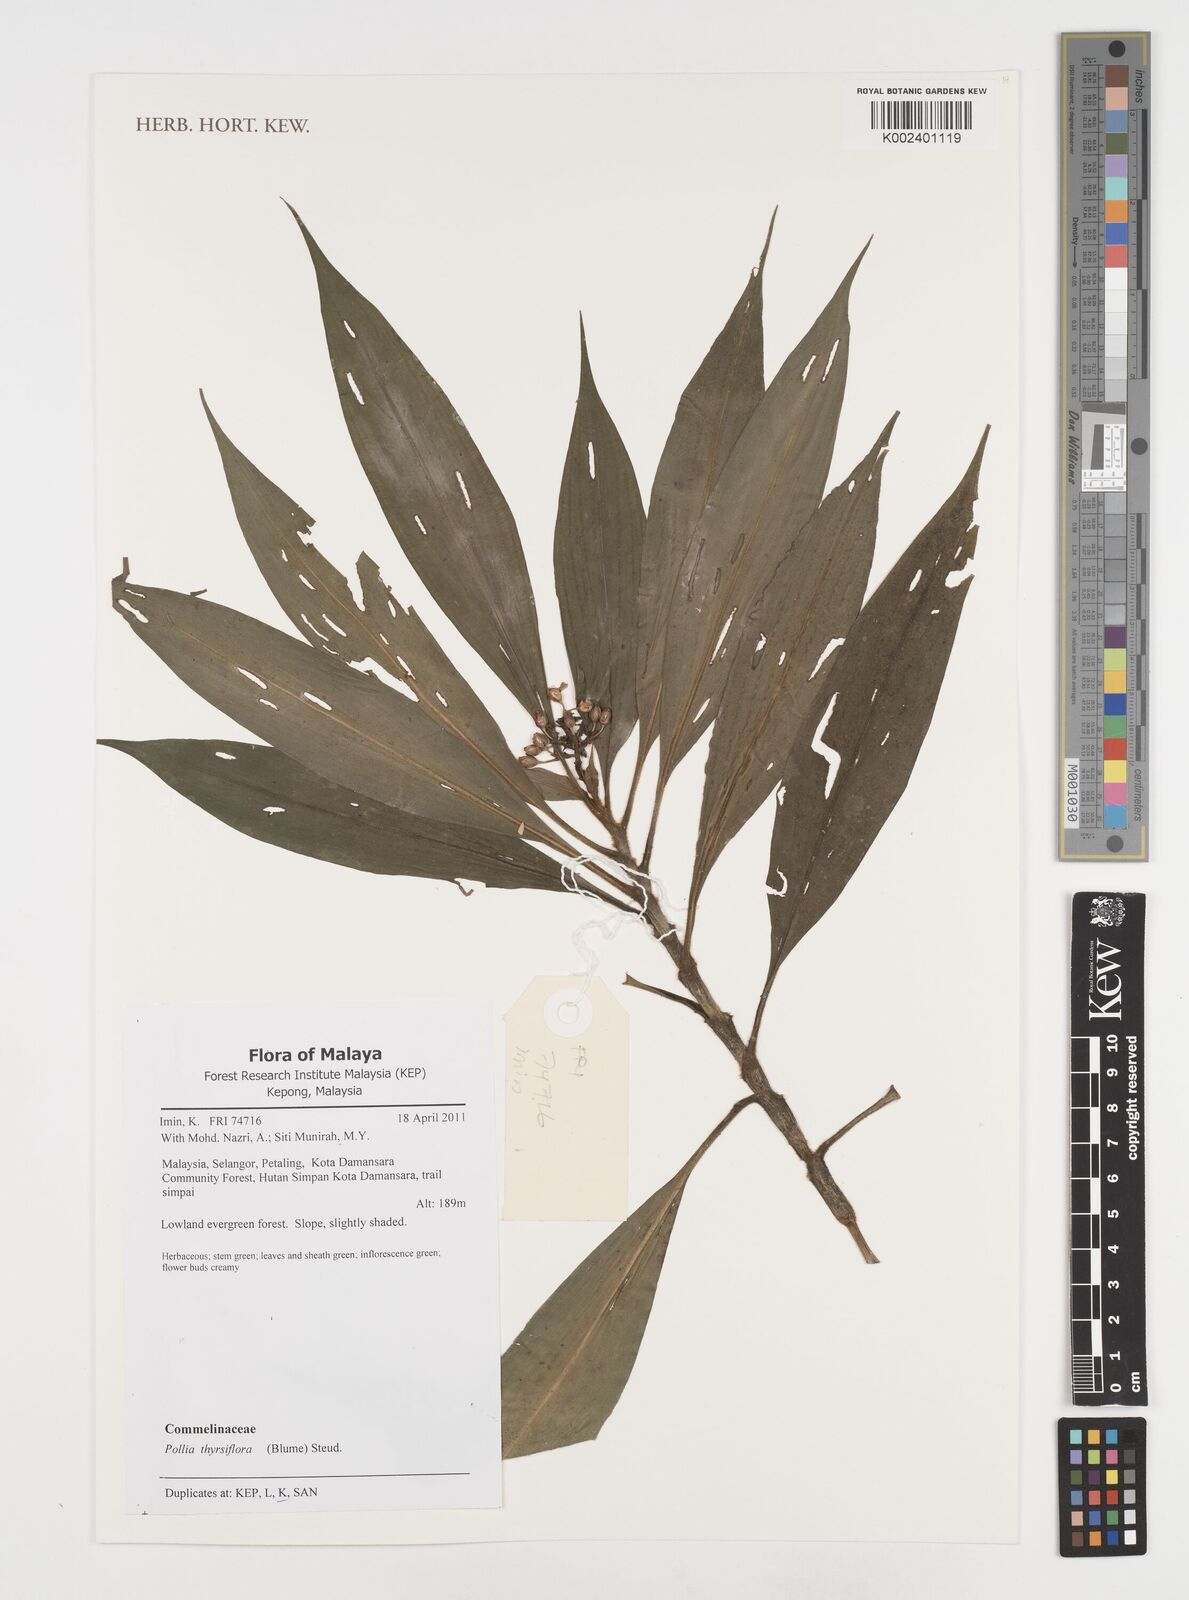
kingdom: Plantae
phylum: Tracheophyta
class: Liliopsida
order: Commelinales
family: Commelinaceae
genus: Pollia
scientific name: Pollia thyrsiflora
